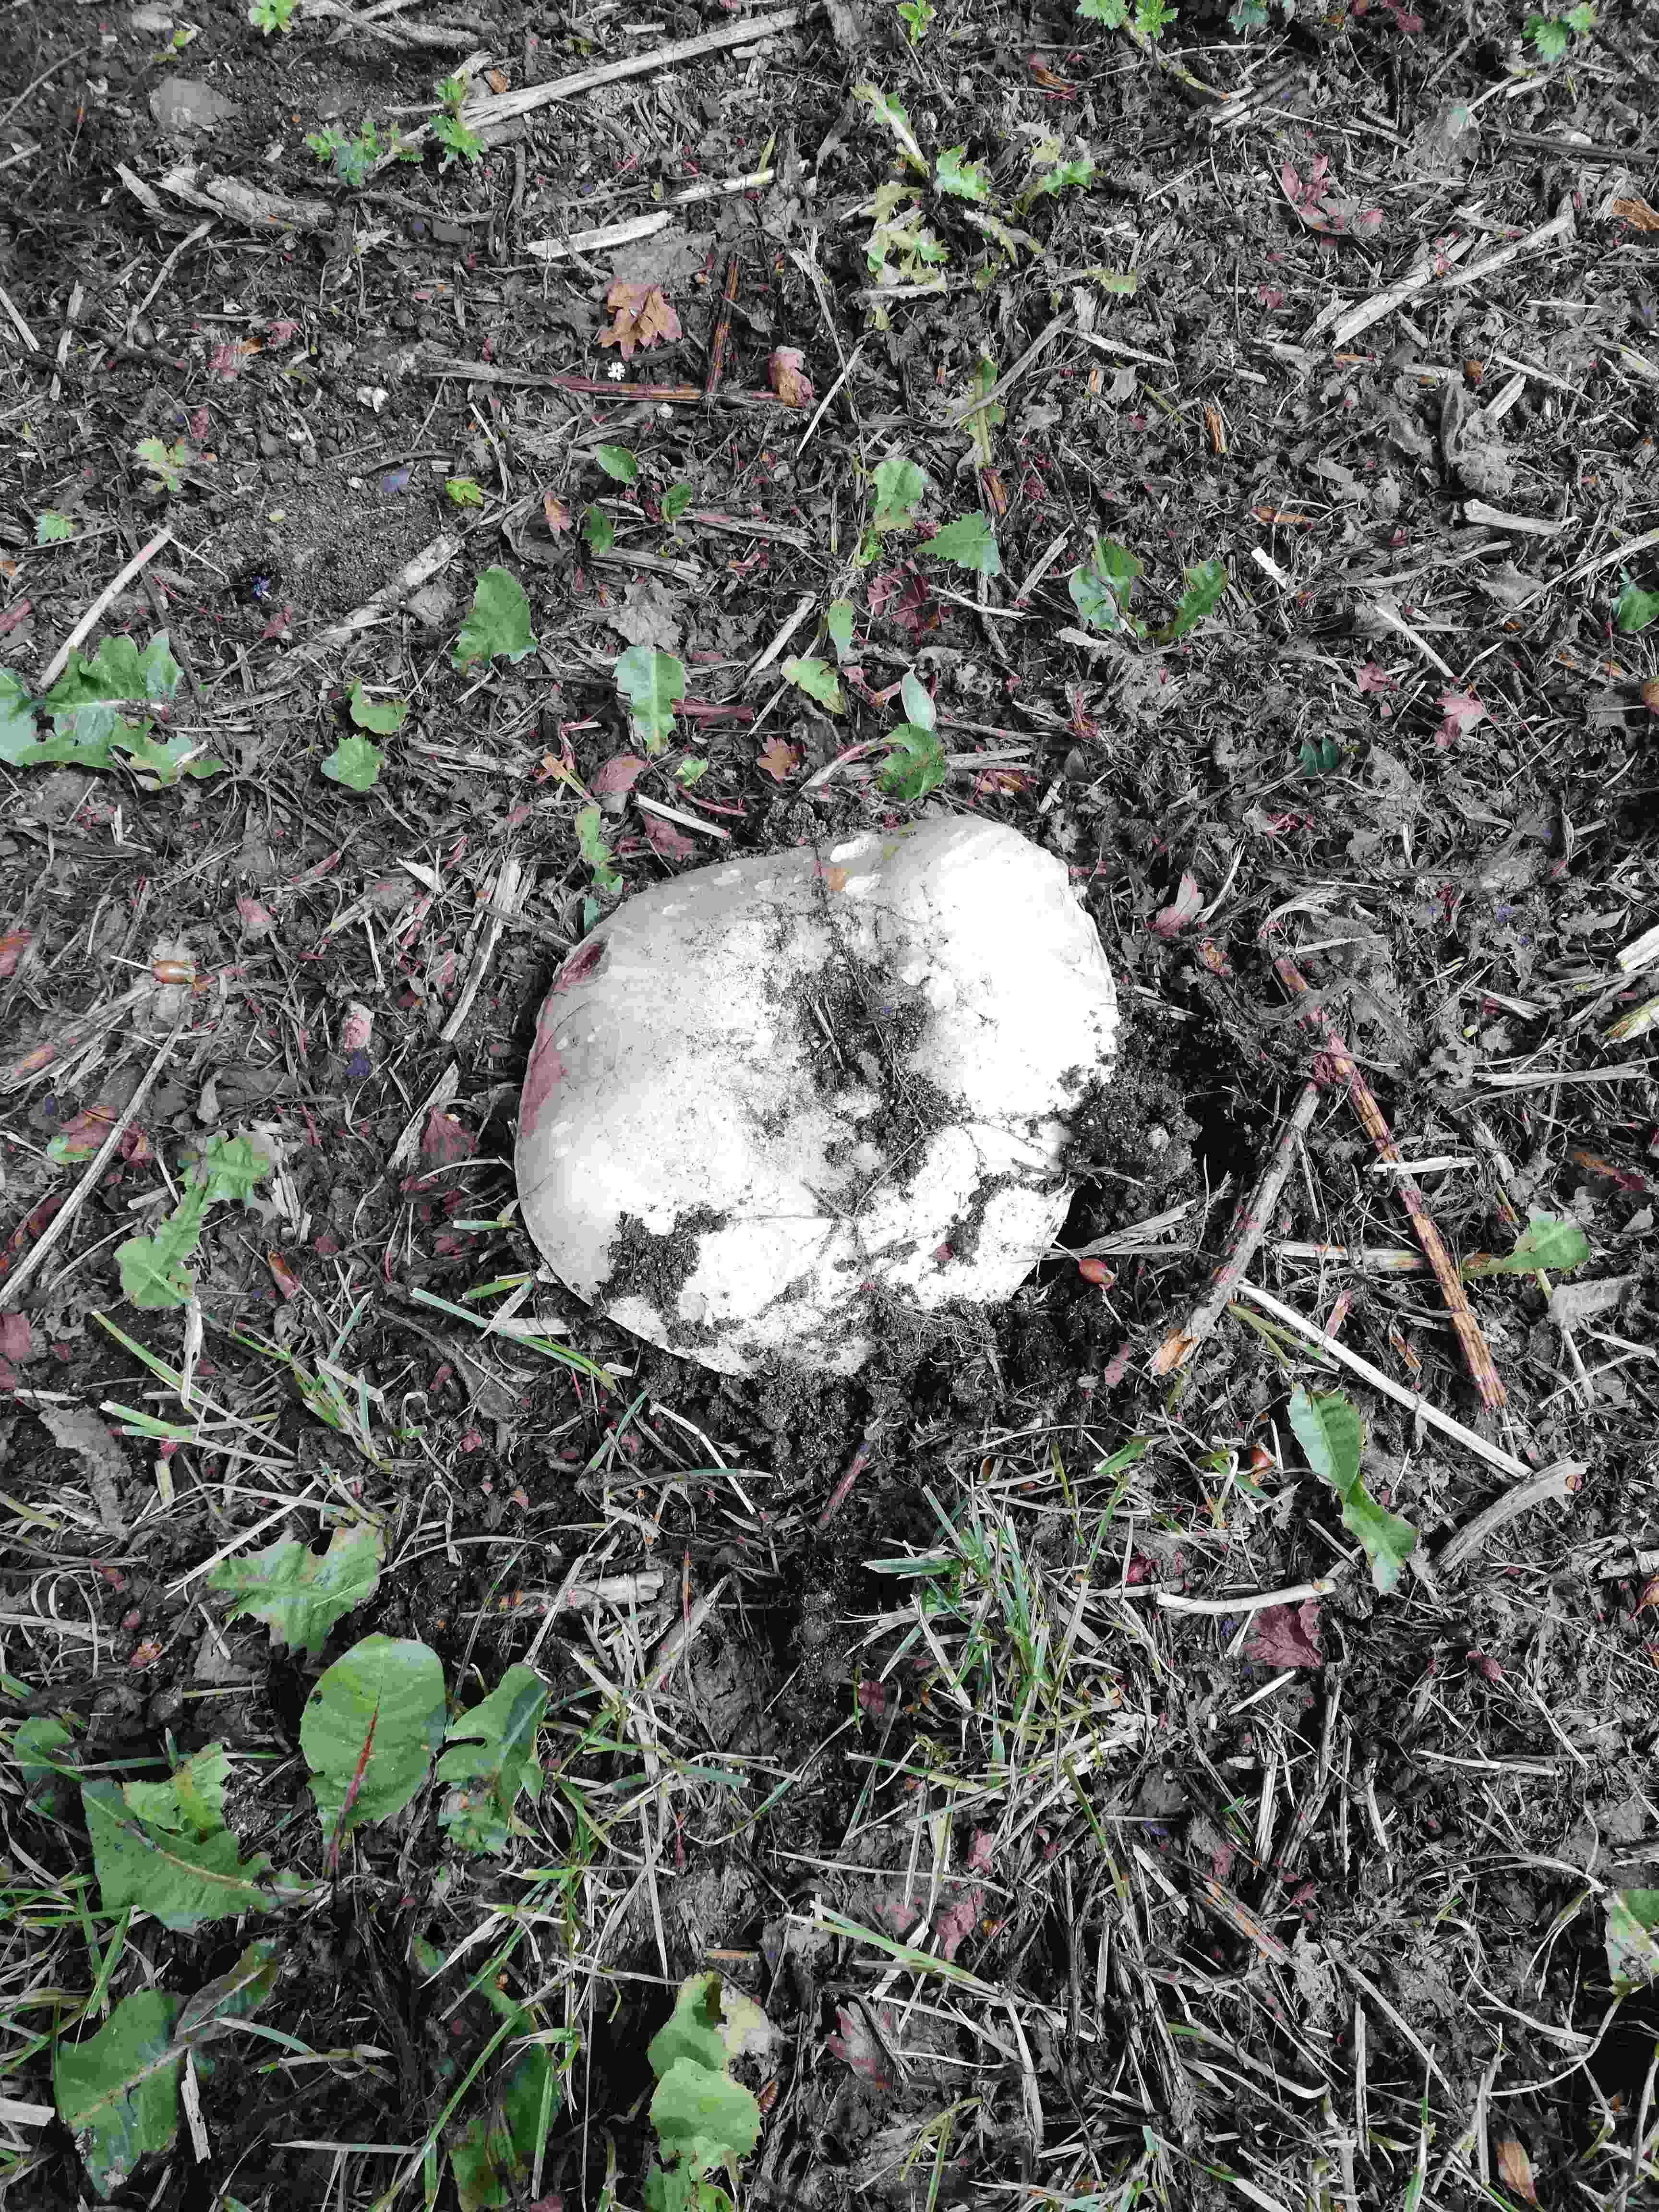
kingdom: Fungi
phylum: Basidiomycota
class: Agaricomycetes
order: Agaricales
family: Agaricaceae
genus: Agaricus
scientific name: Agaricus bitorquis
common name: vej-champignon
